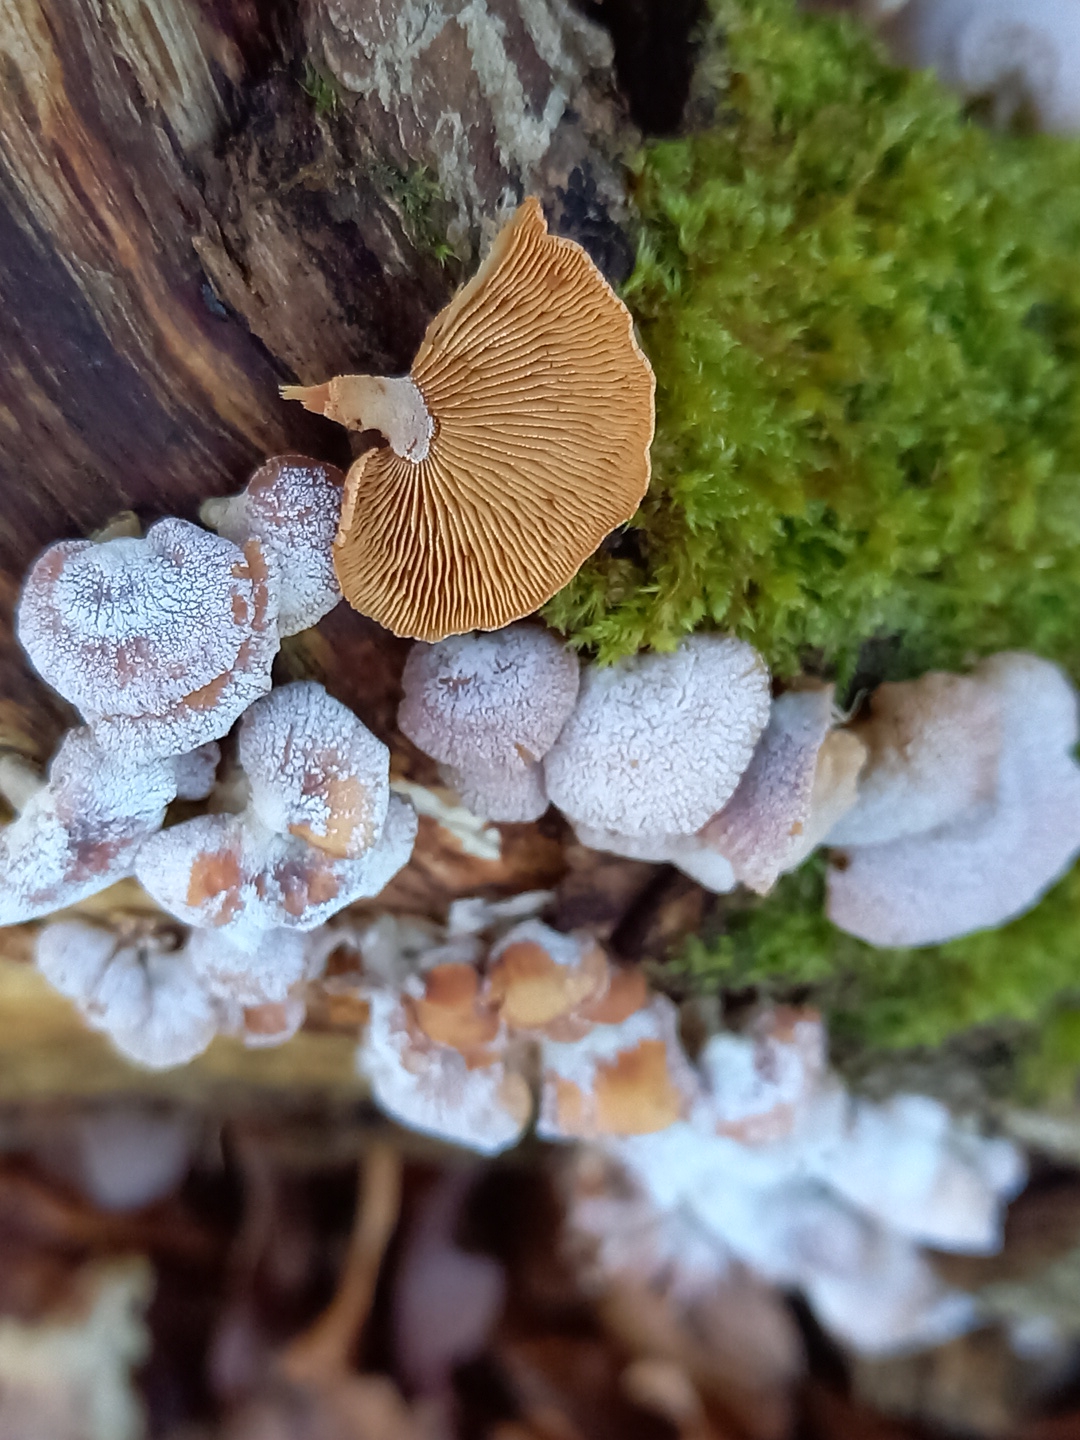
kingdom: Fungi
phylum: Basidiomycota
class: Agaricomycetes
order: Agaricales
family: Mycenaceae
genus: Panellus
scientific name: Panellus stipticus
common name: kliddet epaulethat
